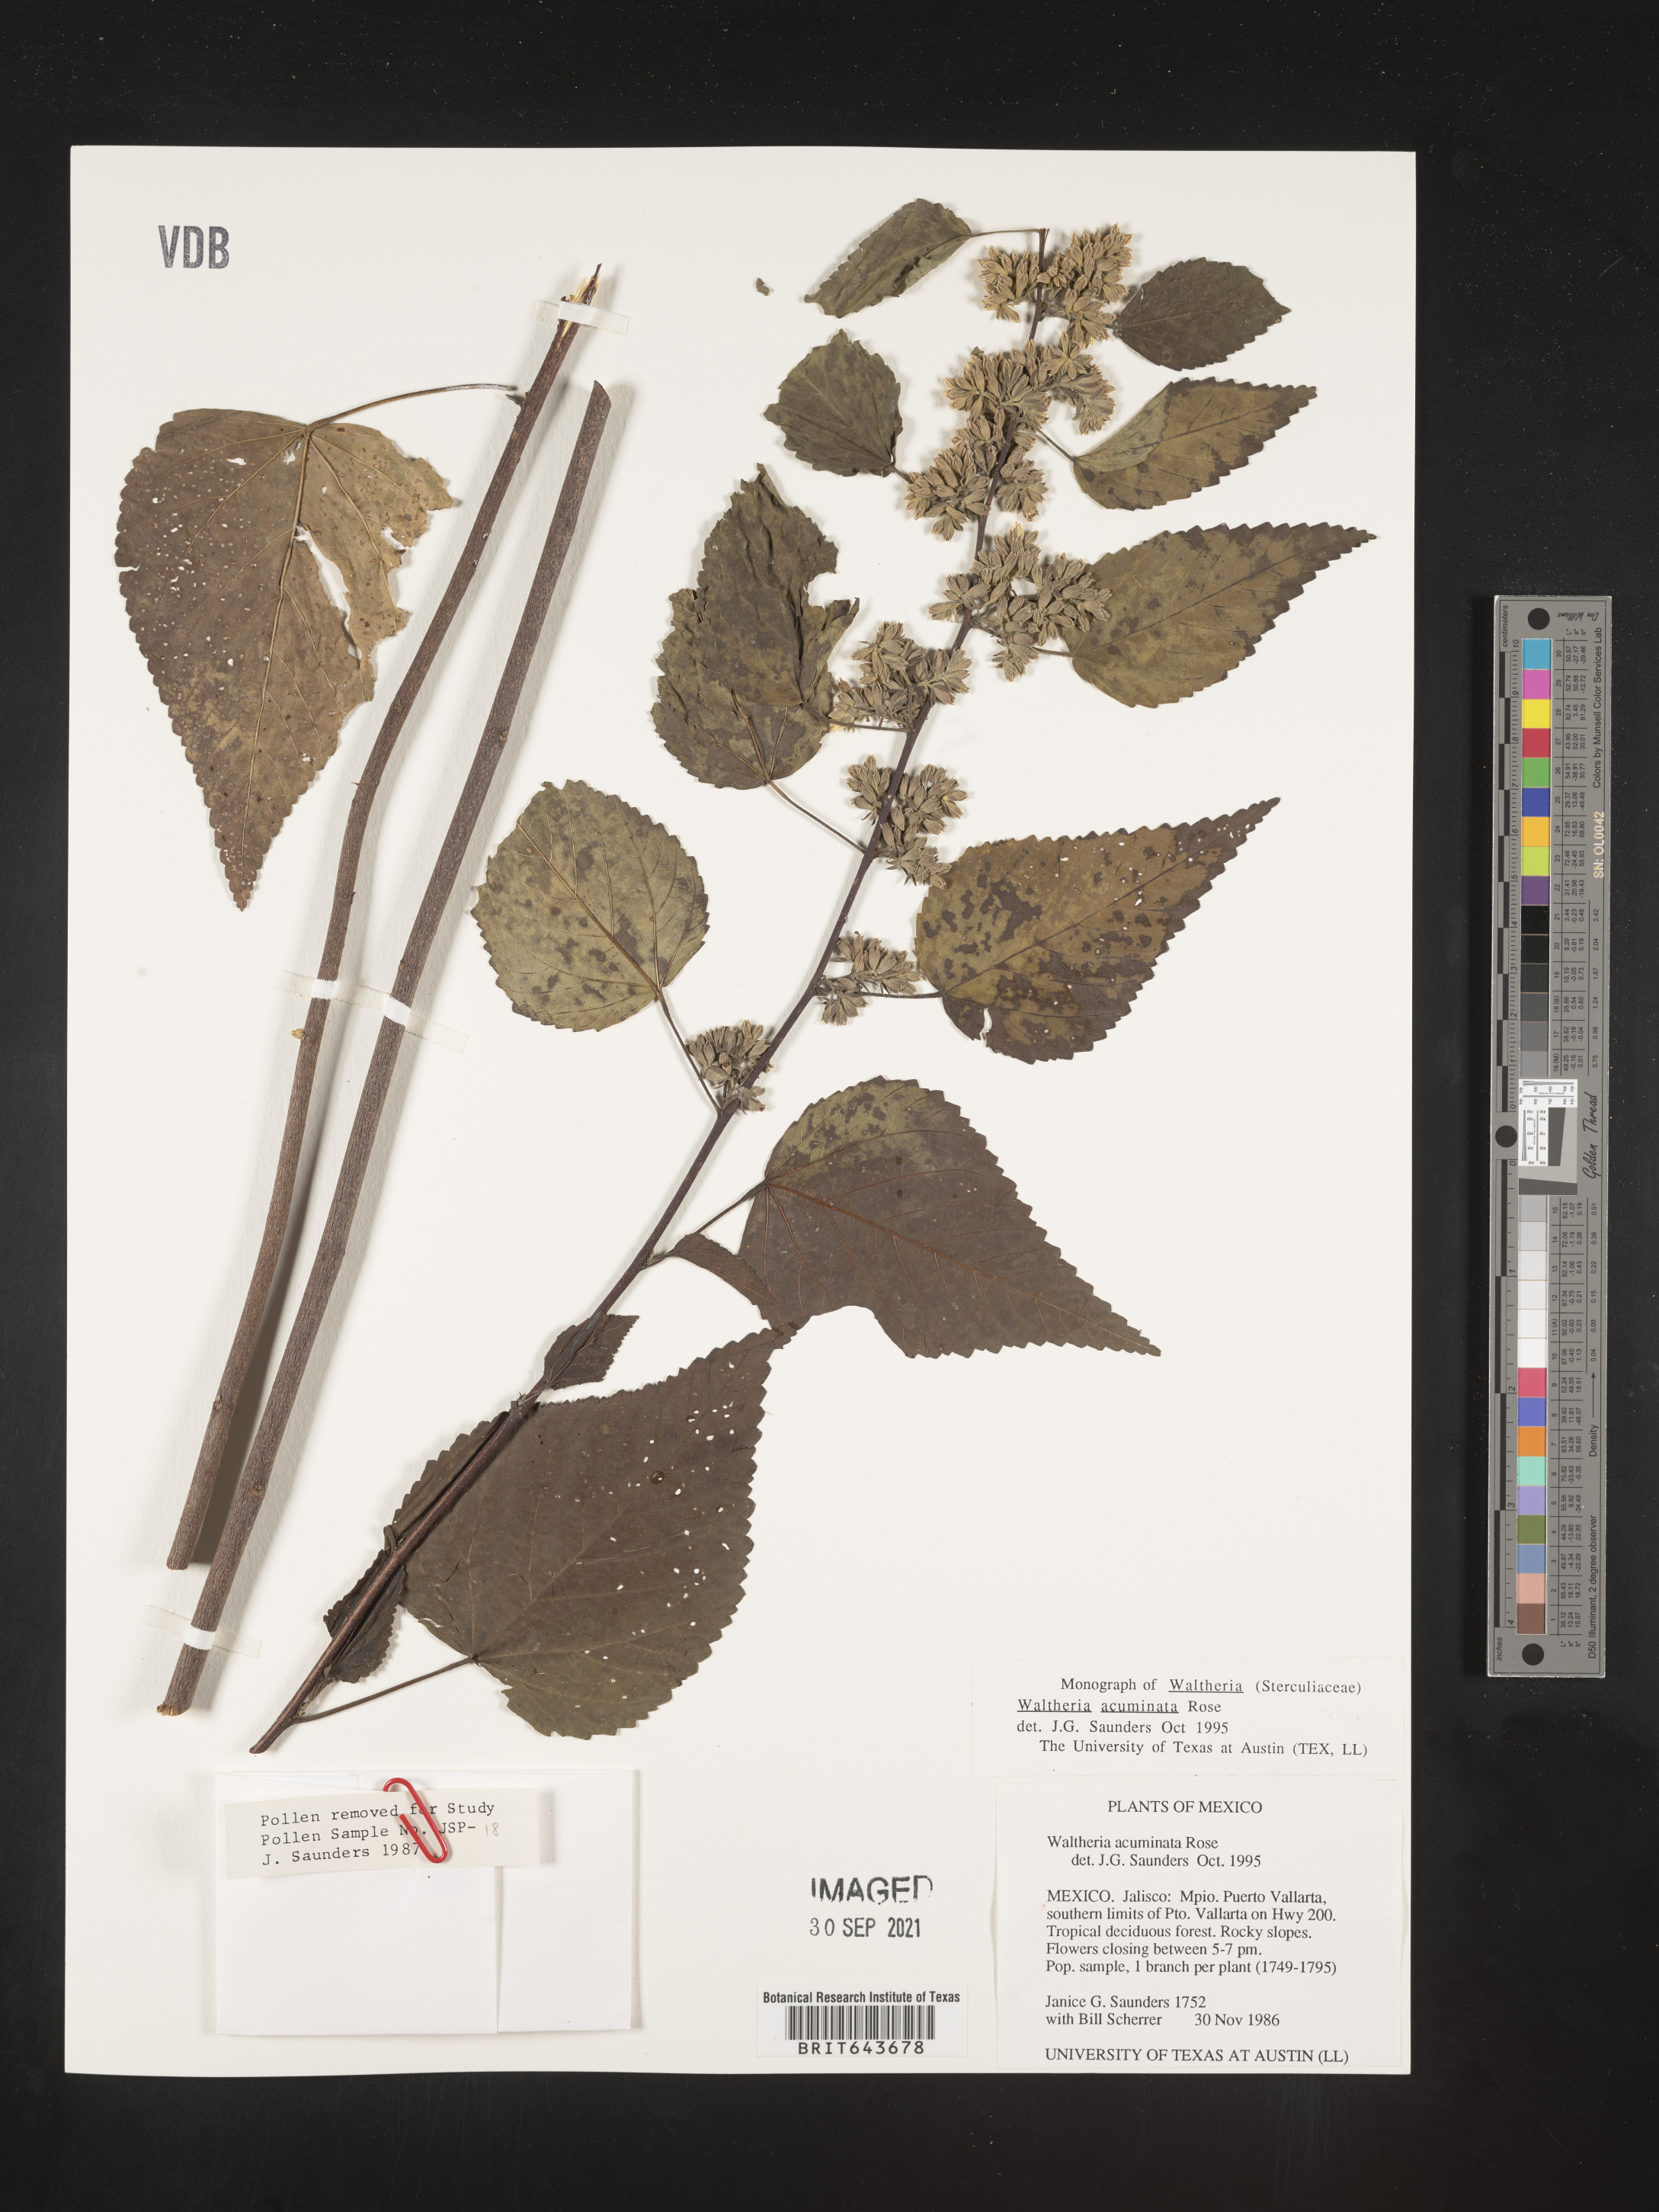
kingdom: Plantae
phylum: Tracheophyta
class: Magnoliopsida
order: Malvales
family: Malvaceae
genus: Waltheria
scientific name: Waltheria
